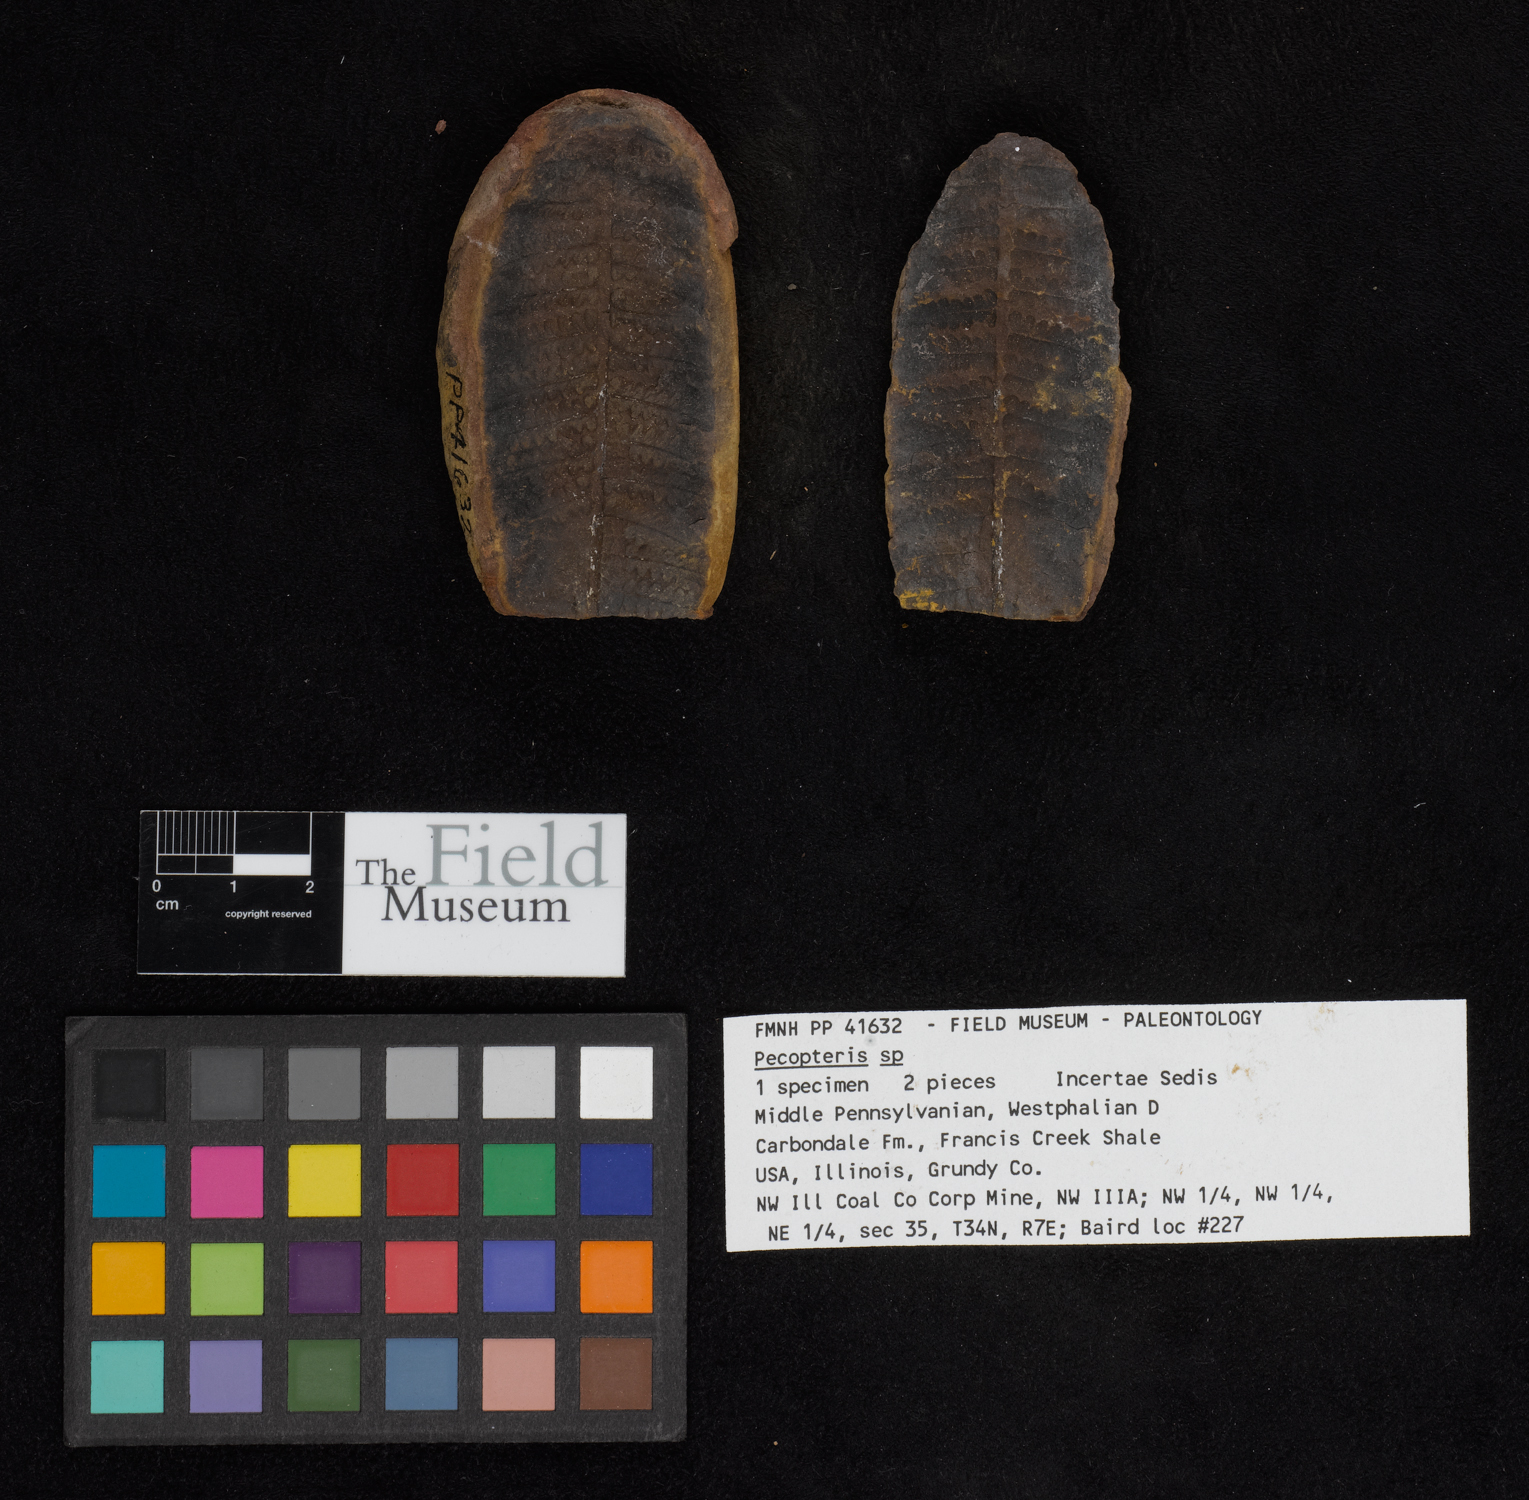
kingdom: Plantae
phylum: Tracheophyta
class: Polypodiopsida
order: Marattiales
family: Asterothecaceae
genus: Pecopteris
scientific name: Pecopteris
